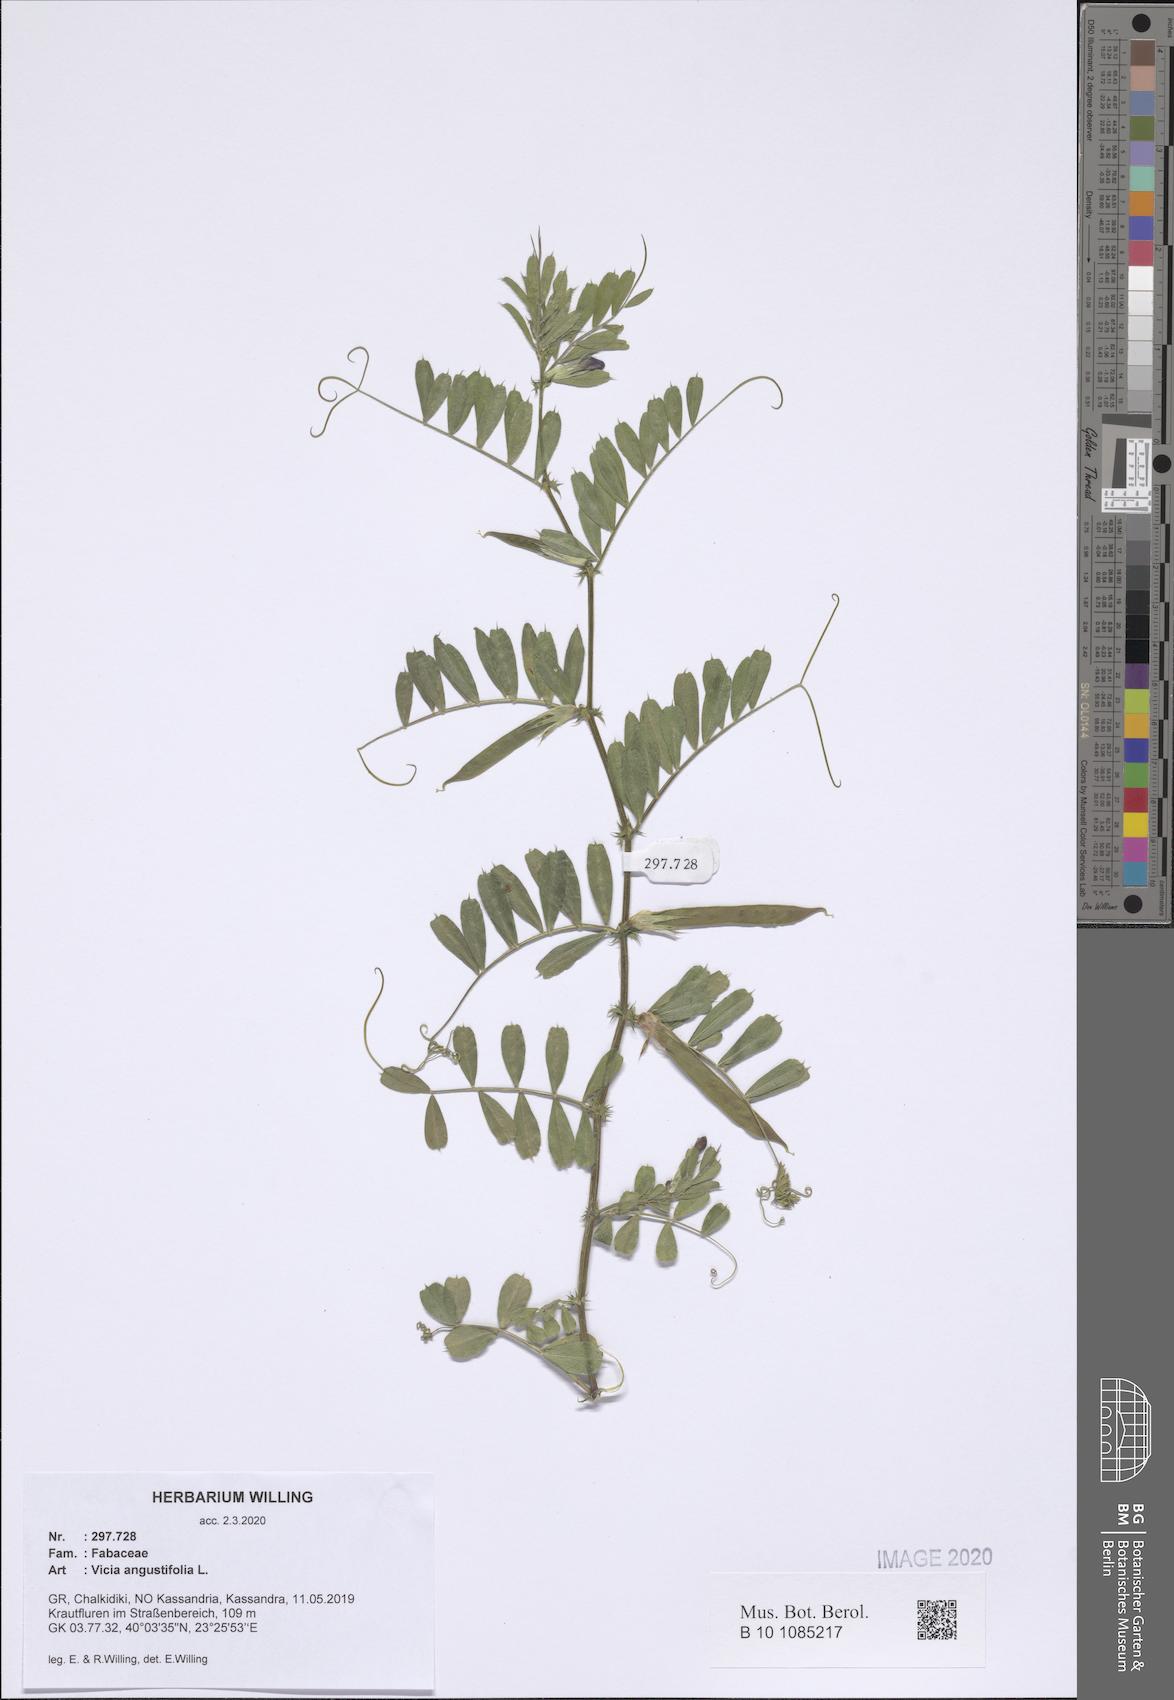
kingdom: Plantae
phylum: Tracheophyta
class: Magnoliopsida
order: Fabales
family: Fabaceae
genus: Vicia
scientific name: Vicia sativa
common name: Garden vetch
